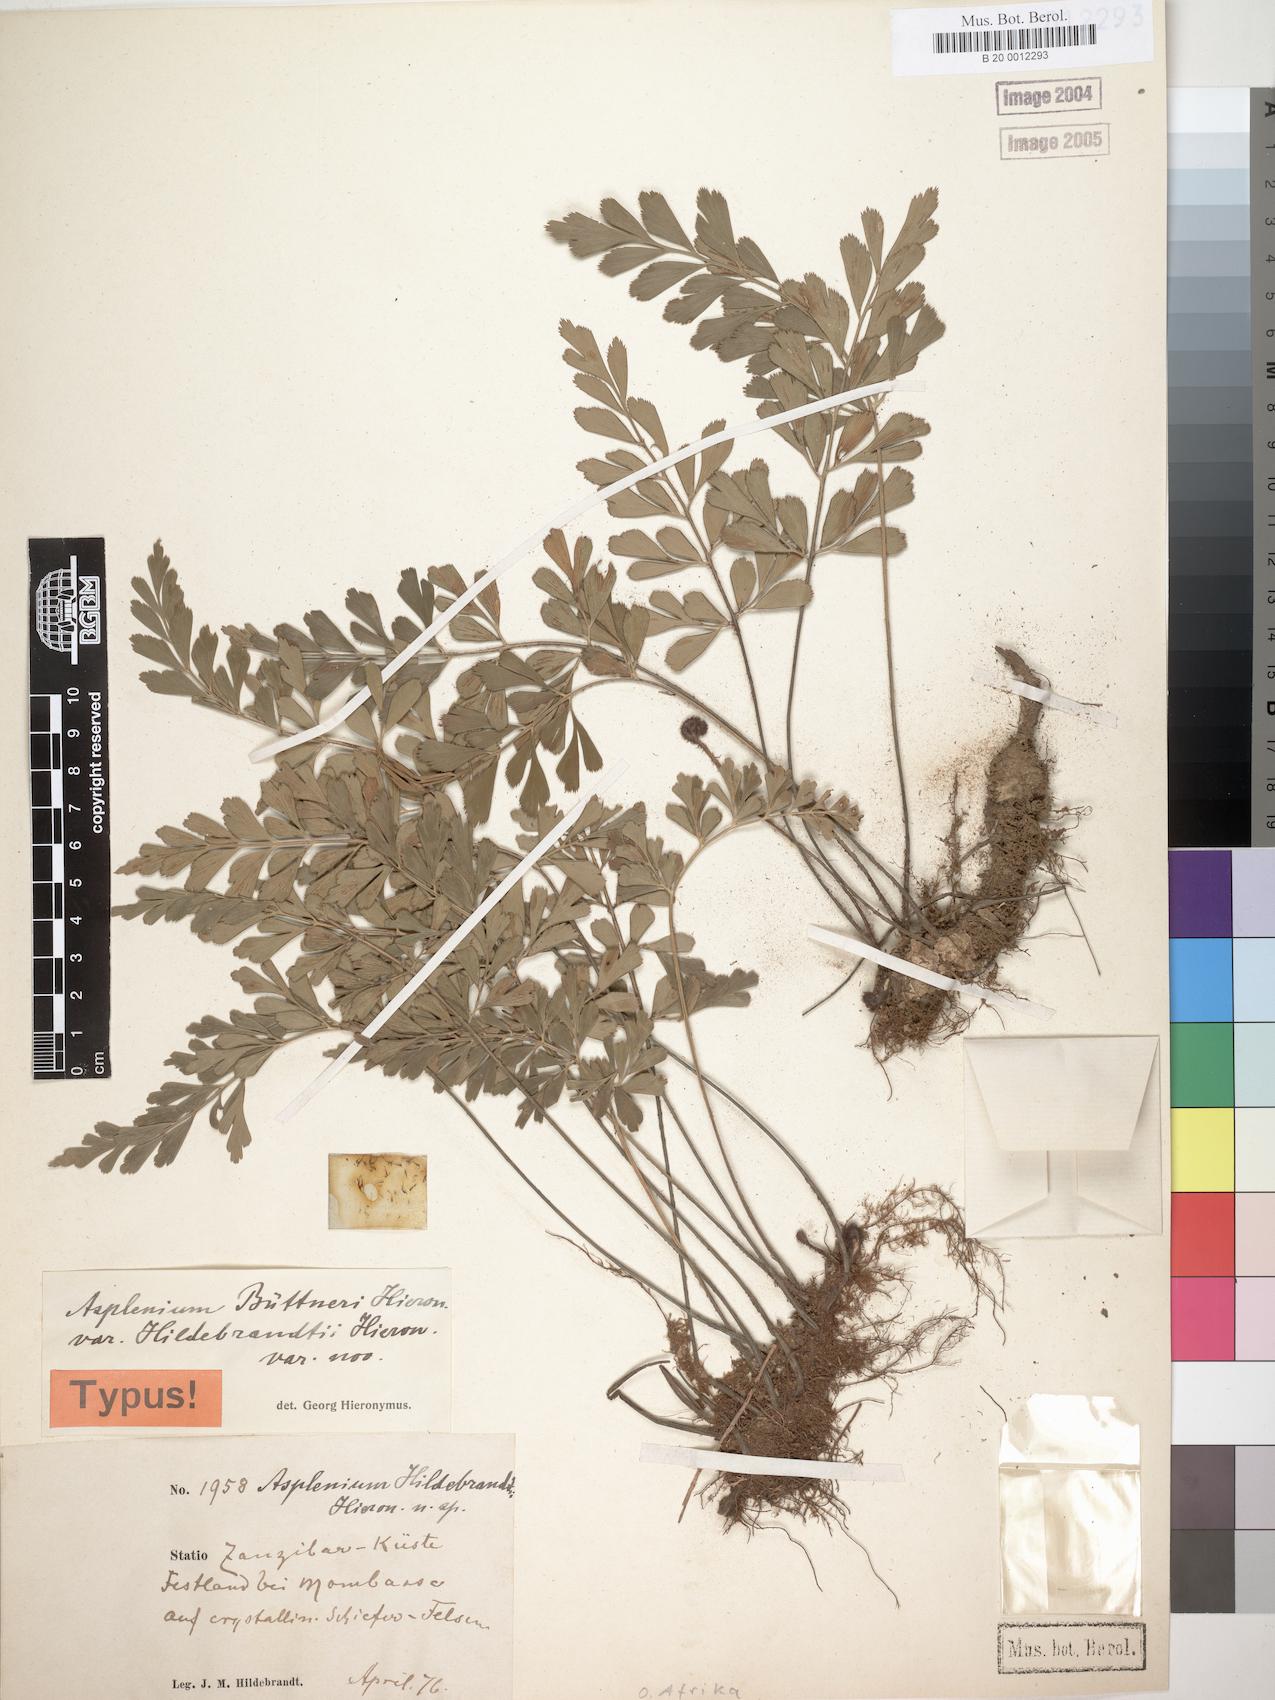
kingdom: Plantae
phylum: Tracheophyta
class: Polypodiopsida
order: Polypodiales
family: Aspleniaceae
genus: Asplenium
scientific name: Asplenium hildebrandtianum
